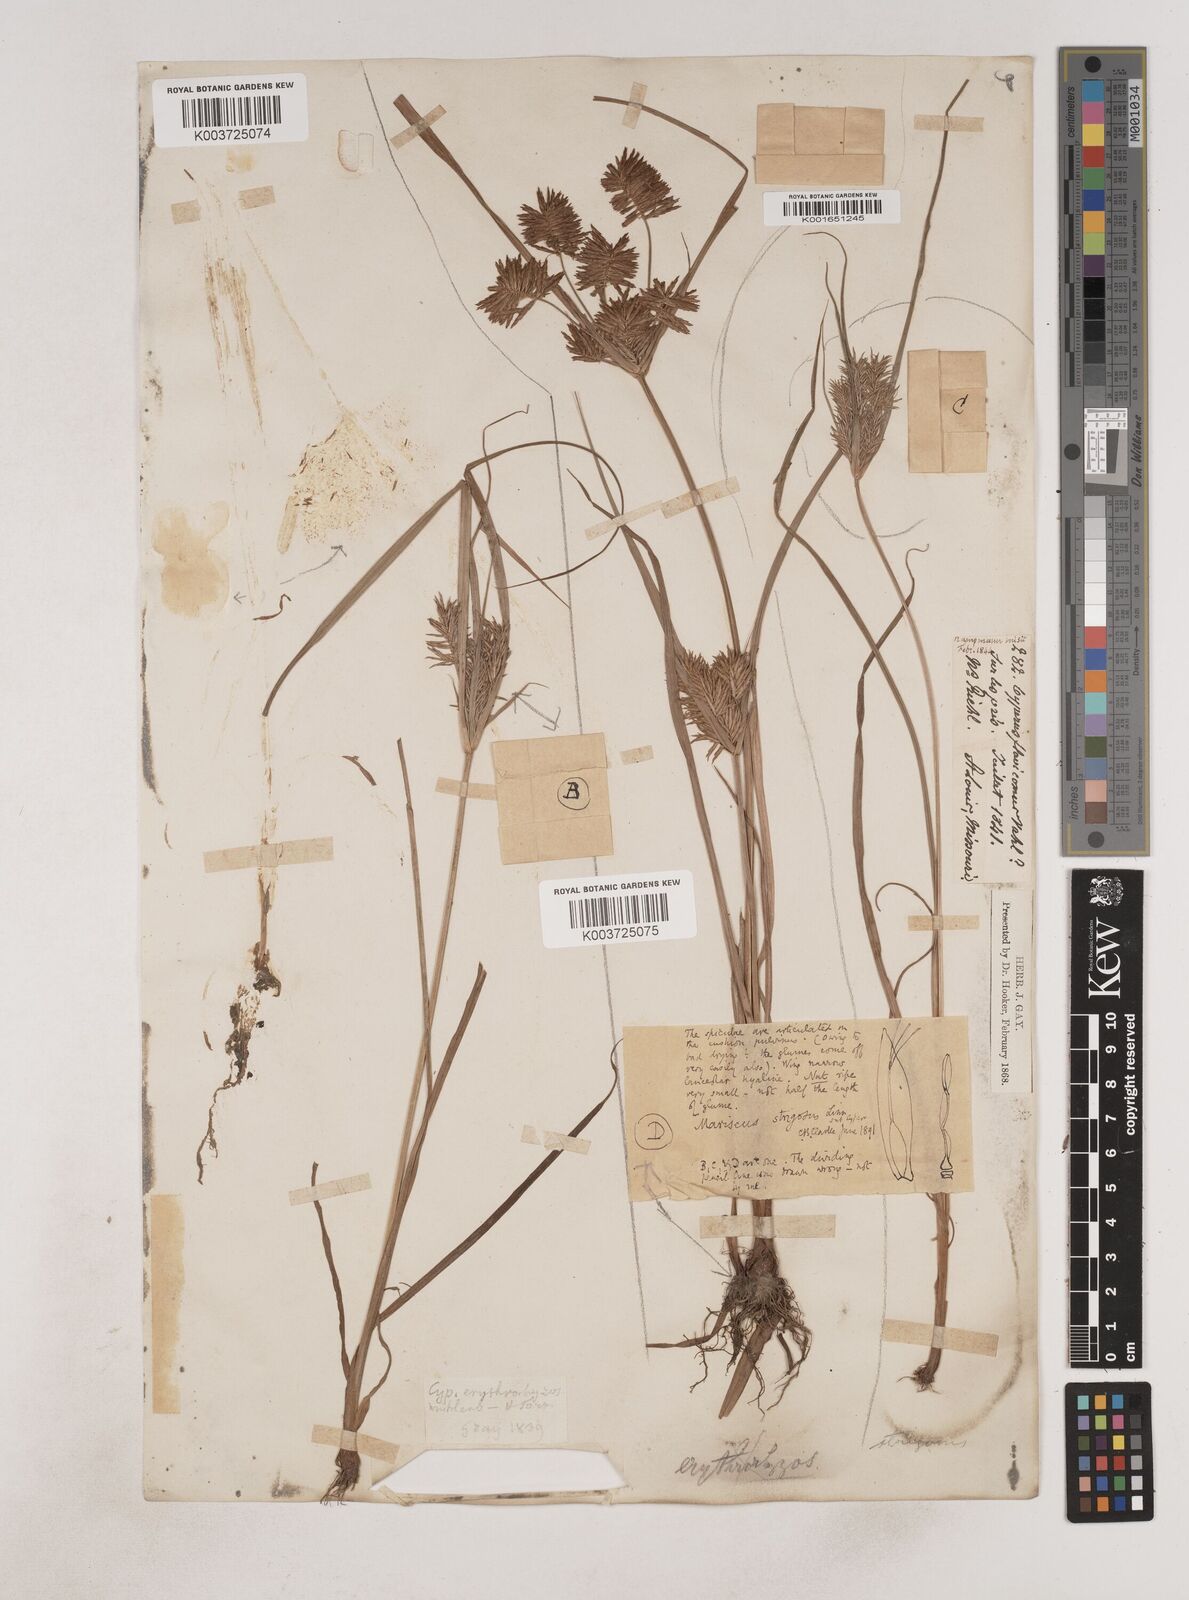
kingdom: Plantae
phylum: Tracheophyta
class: Liliopsida
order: Poales
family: Cyperaceae
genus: Cyperus
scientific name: Cyperus strigosus
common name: False nutsedge
